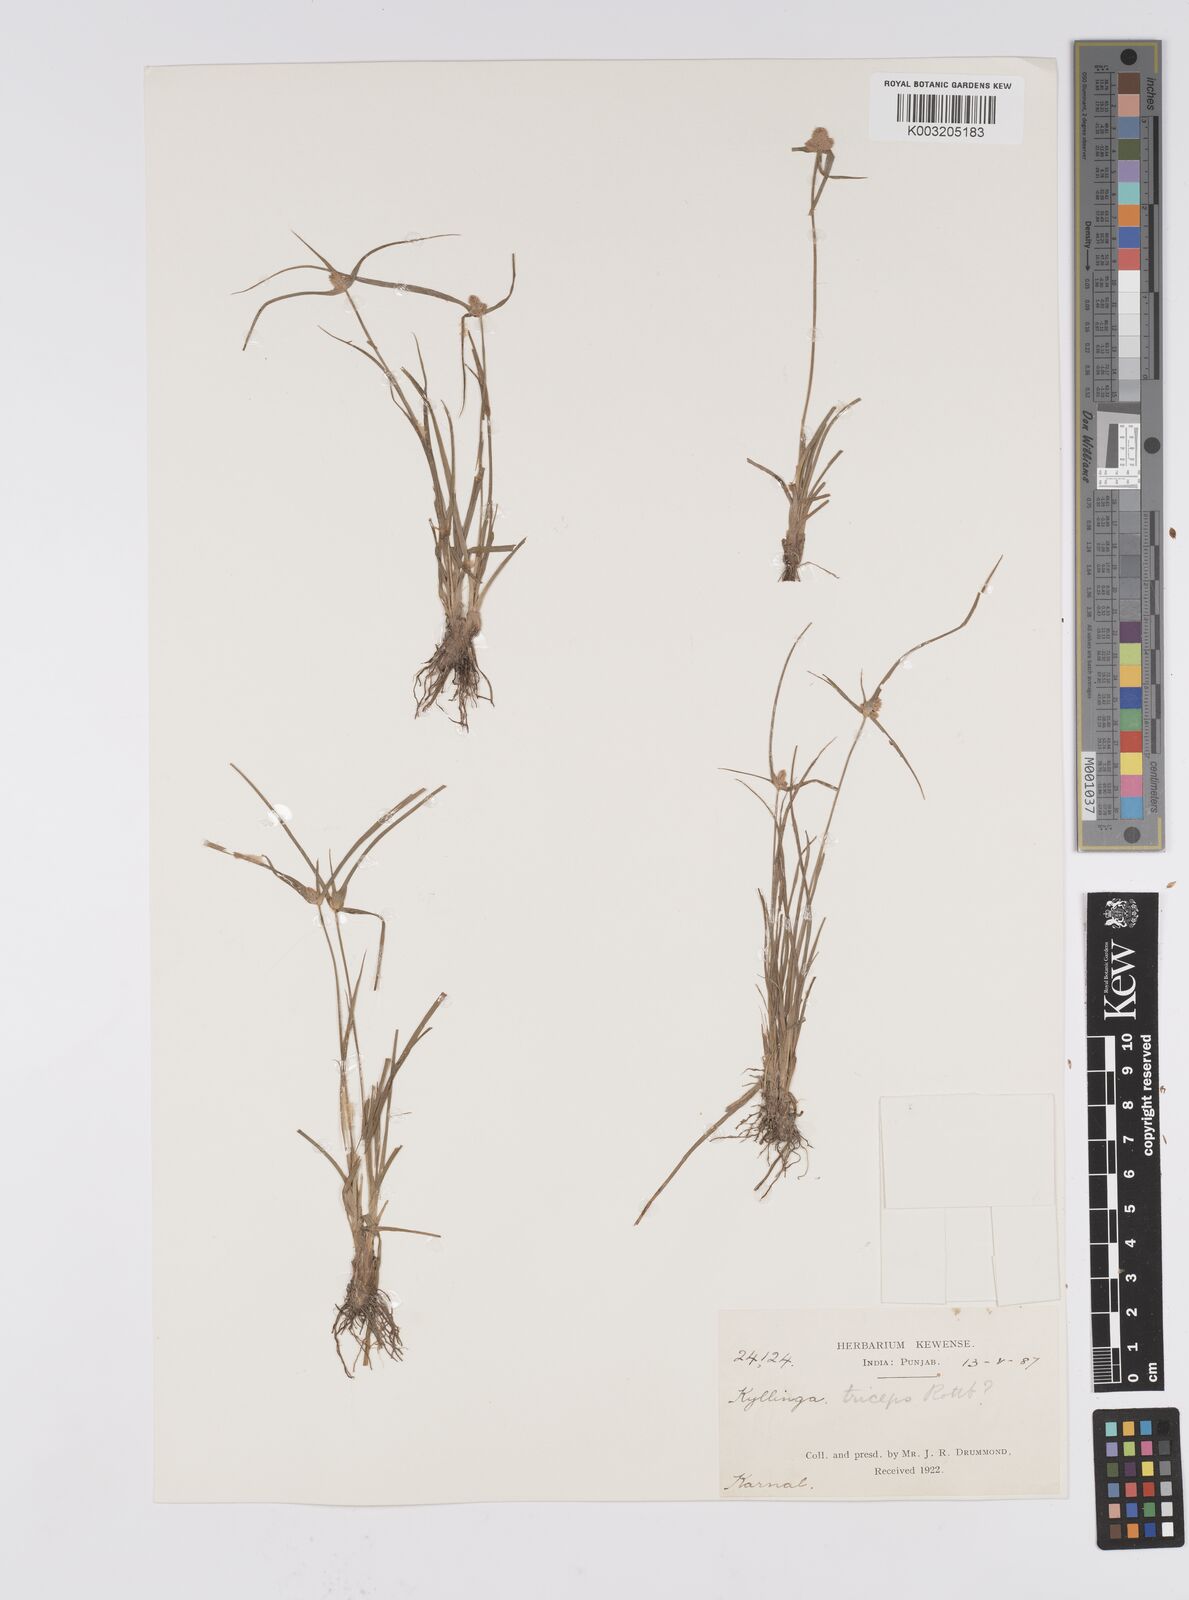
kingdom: Plantae
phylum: Tracheophyta
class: Liliopsida
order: Poales
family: Cyperaceae
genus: Cyperus
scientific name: Cyperus
